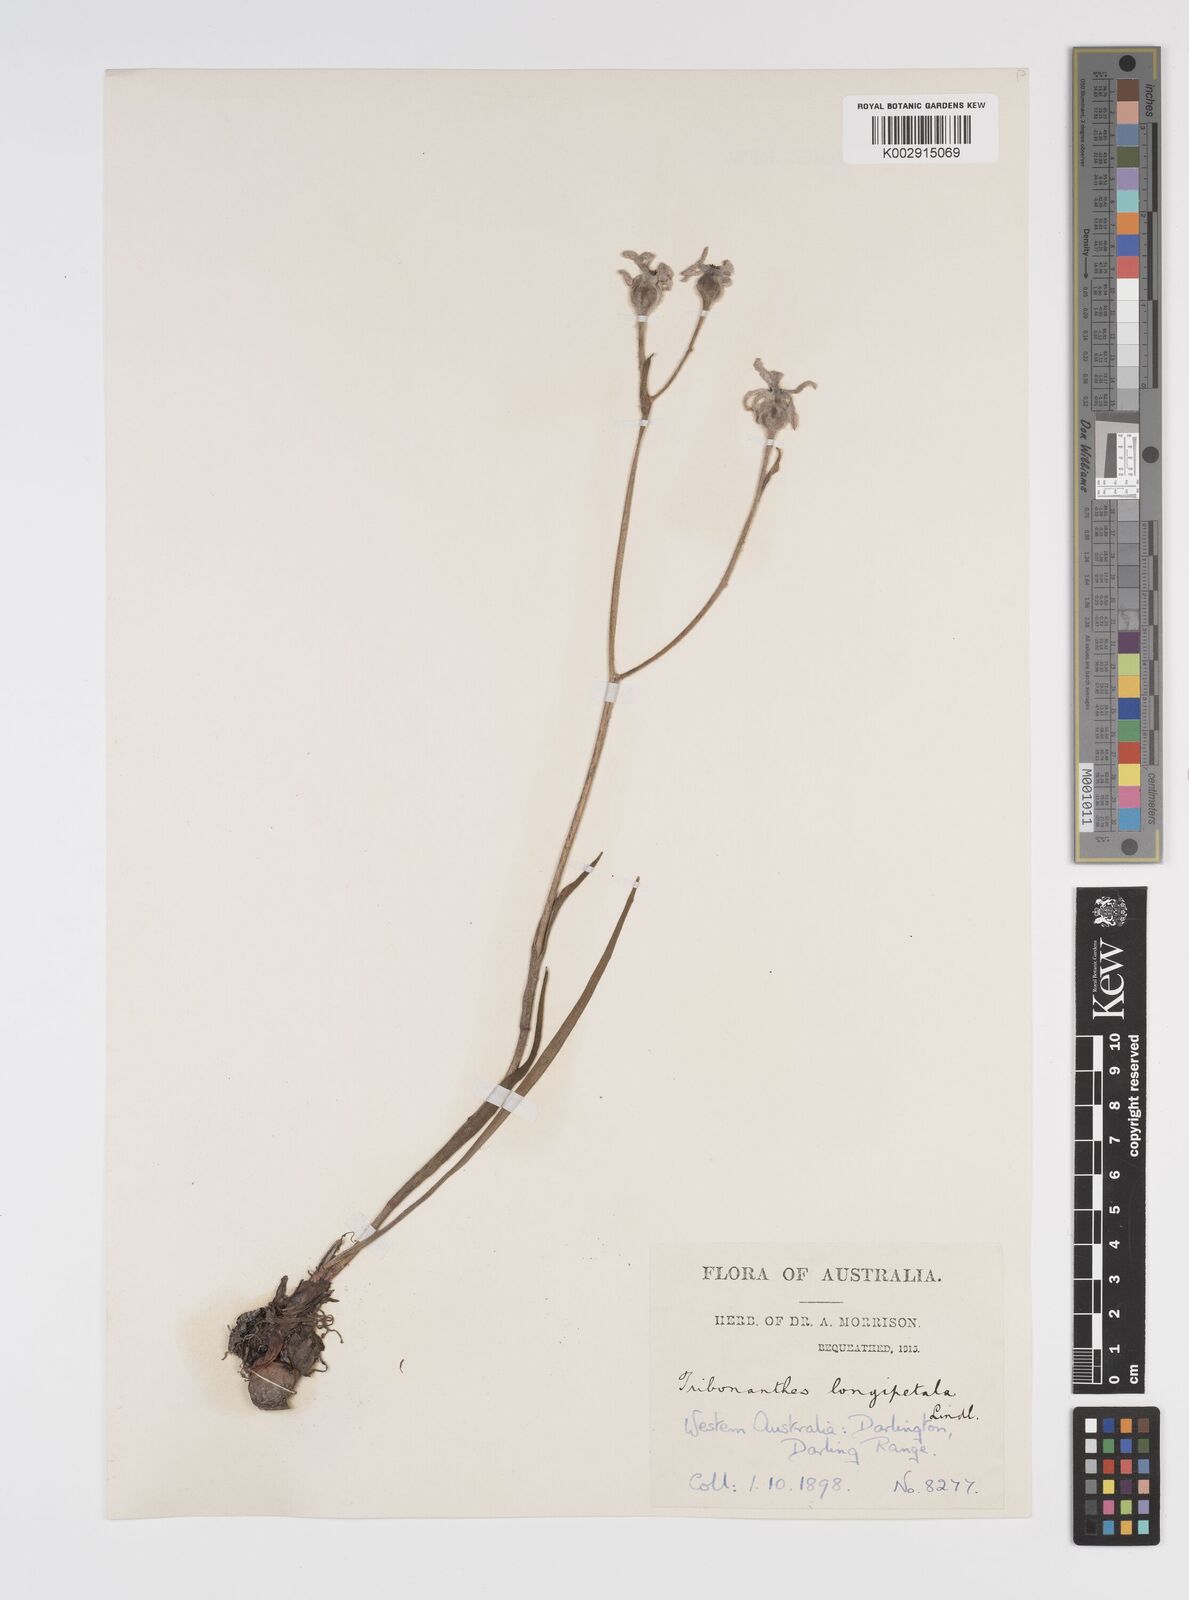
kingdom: Plantae
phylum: Tracheophyta
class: Liliopsida
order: Commelinales
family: Haemodoraceae
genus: Tribonanthes
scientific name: Tribonanthes longipetala
